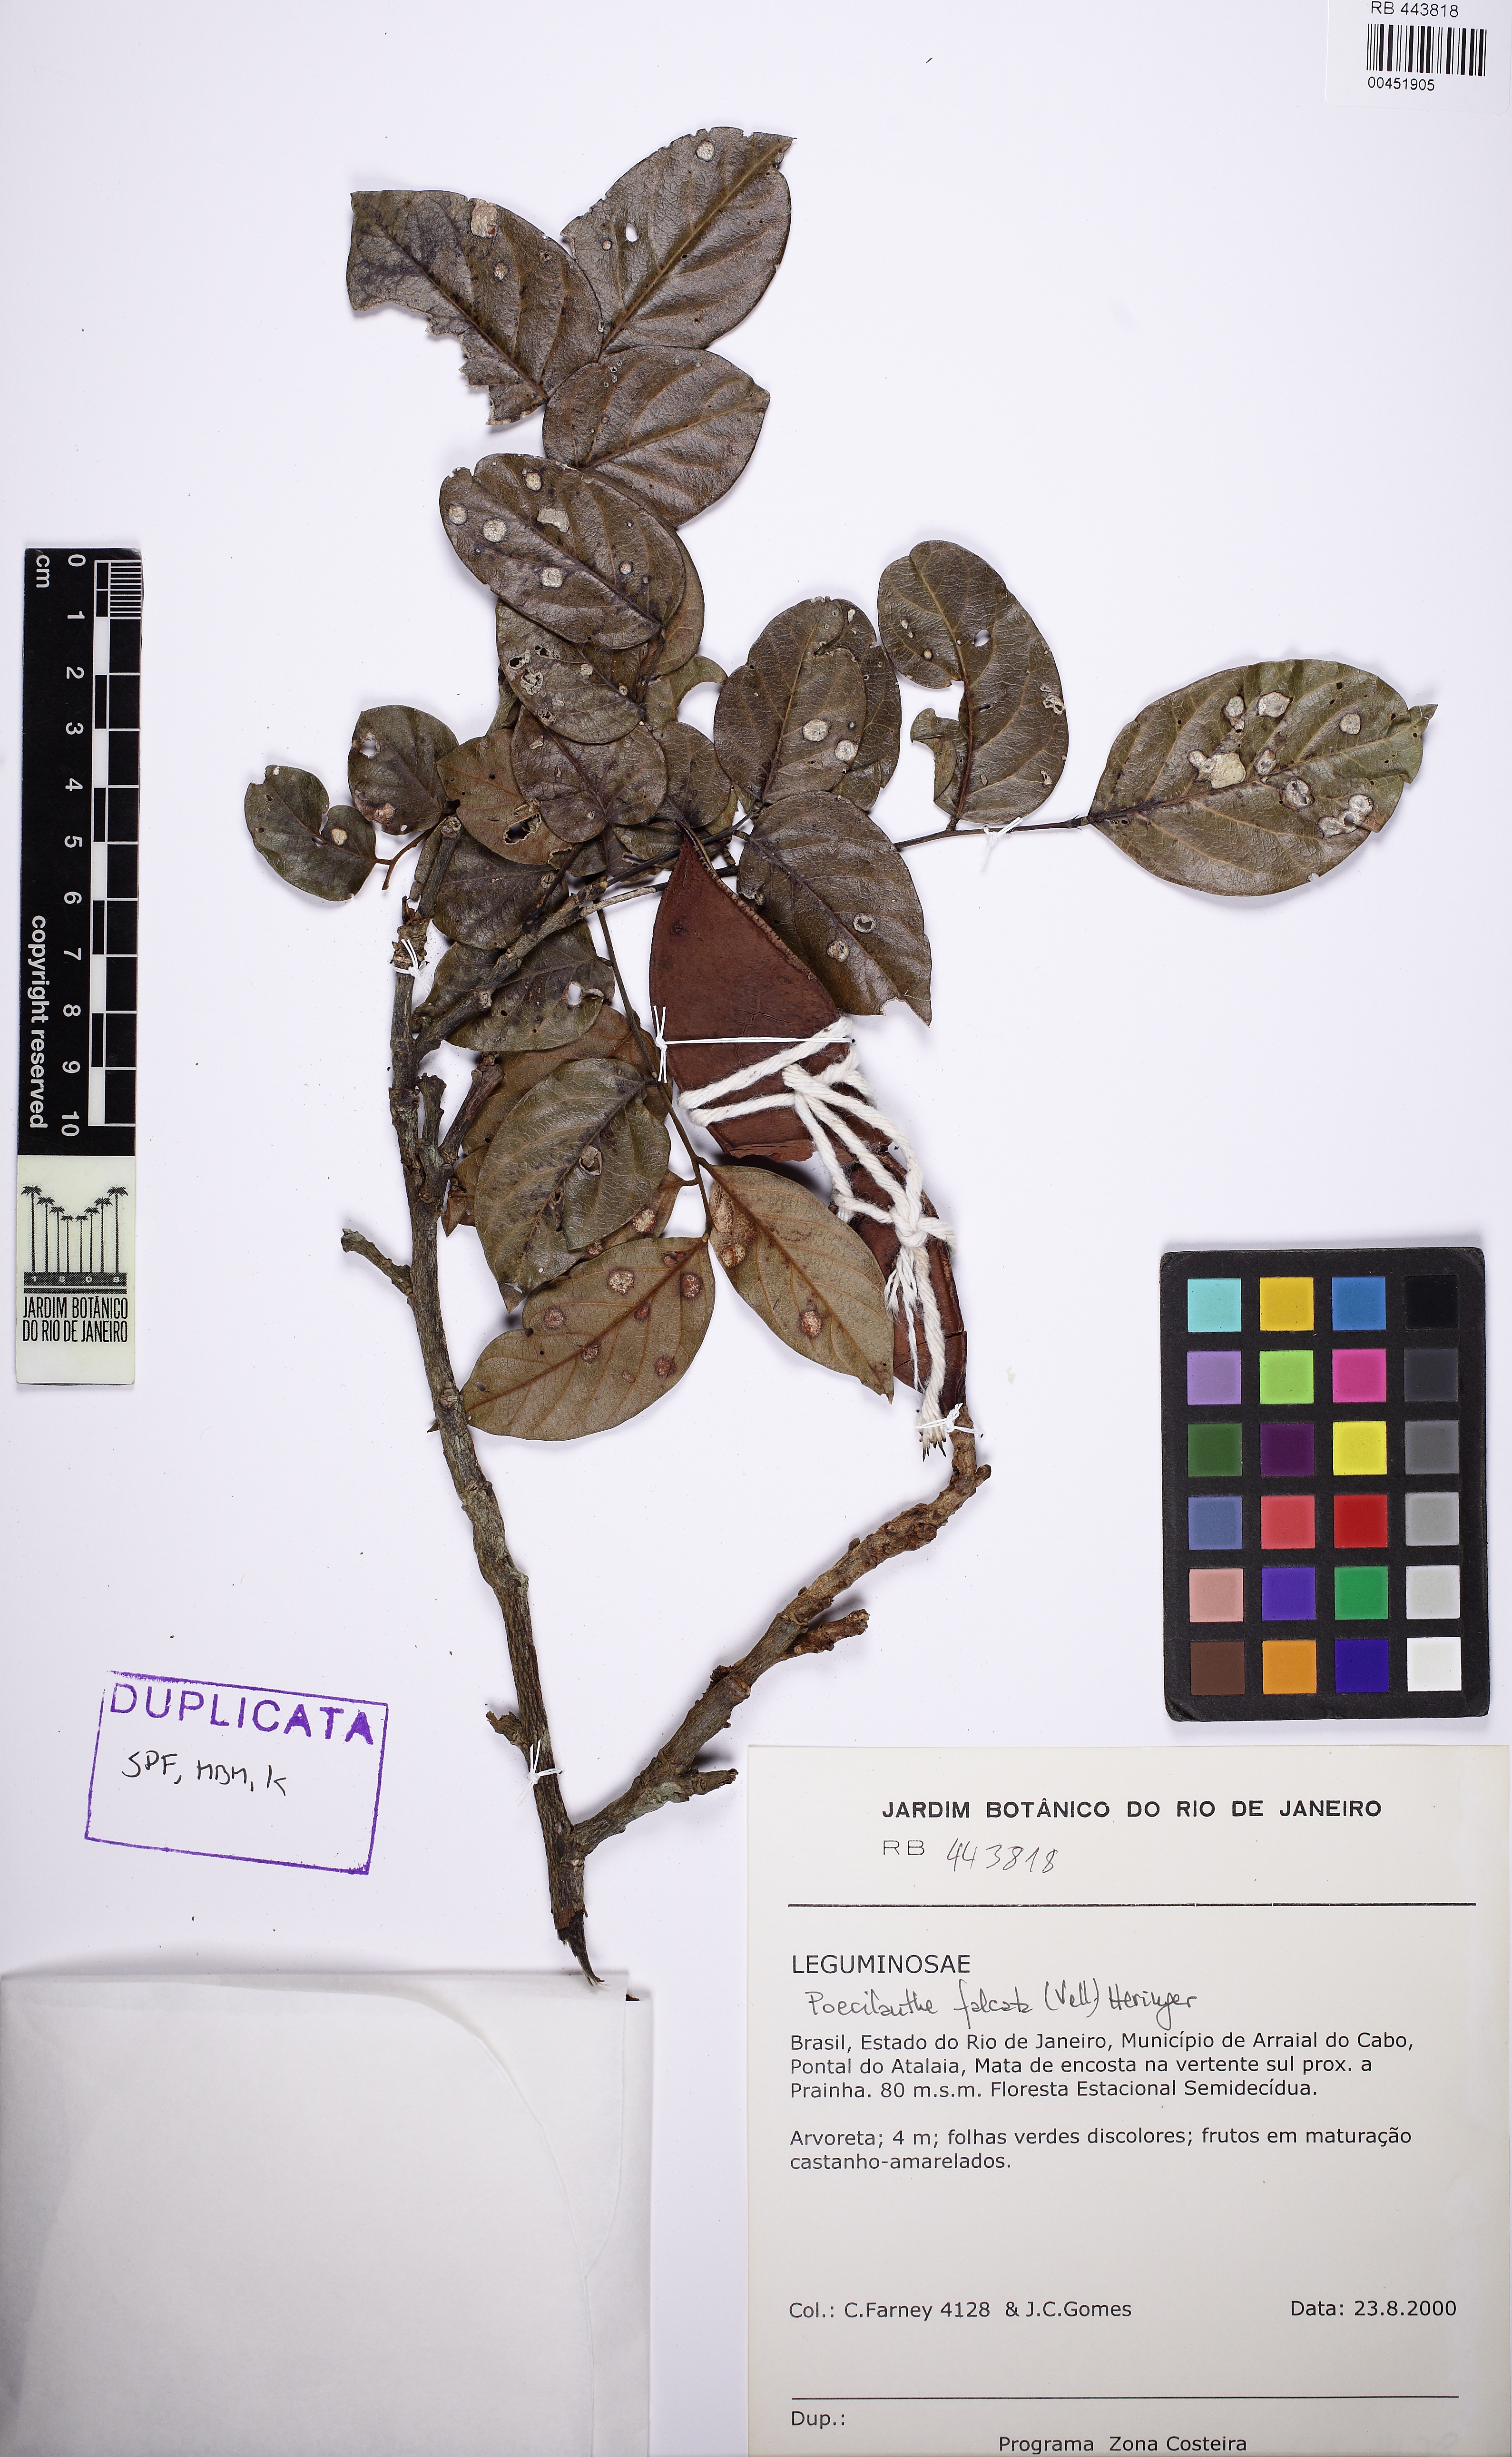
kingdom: Plantae
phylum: Tracheophyta
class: Magnoliopsida
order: Fabales
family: Fabaceae
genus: Poecilanthe
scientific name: Poecilanthe falcata
